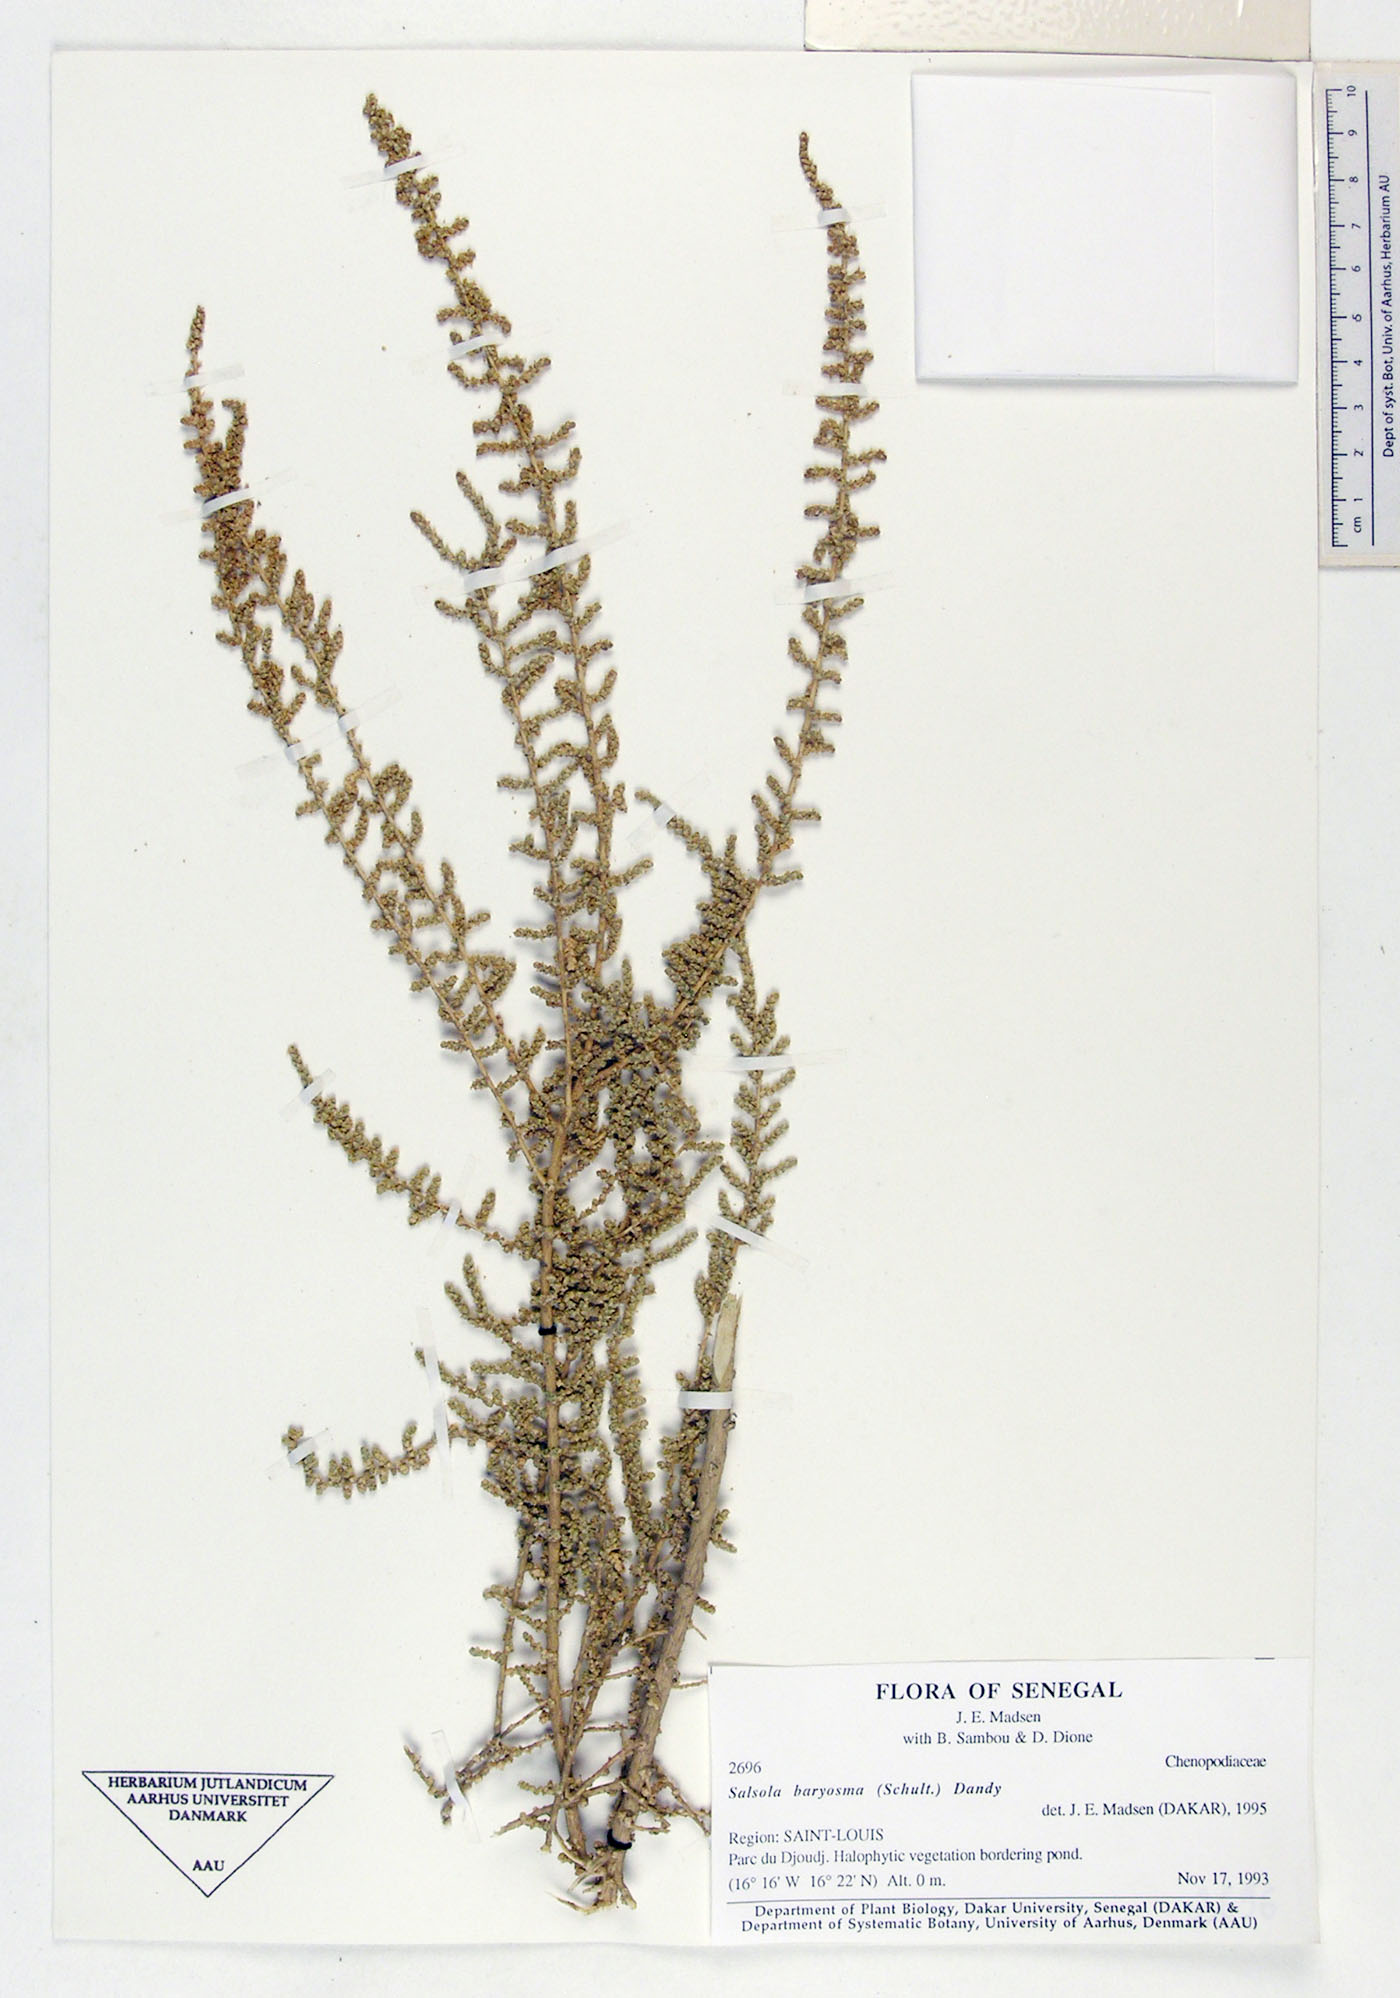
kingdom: Plantae
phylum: Tracheophyta
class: Magnoliopsida
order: Caryophyllales
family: Amaranthaceae
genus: Caroxylon
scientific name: Caroxylon imbricatum
